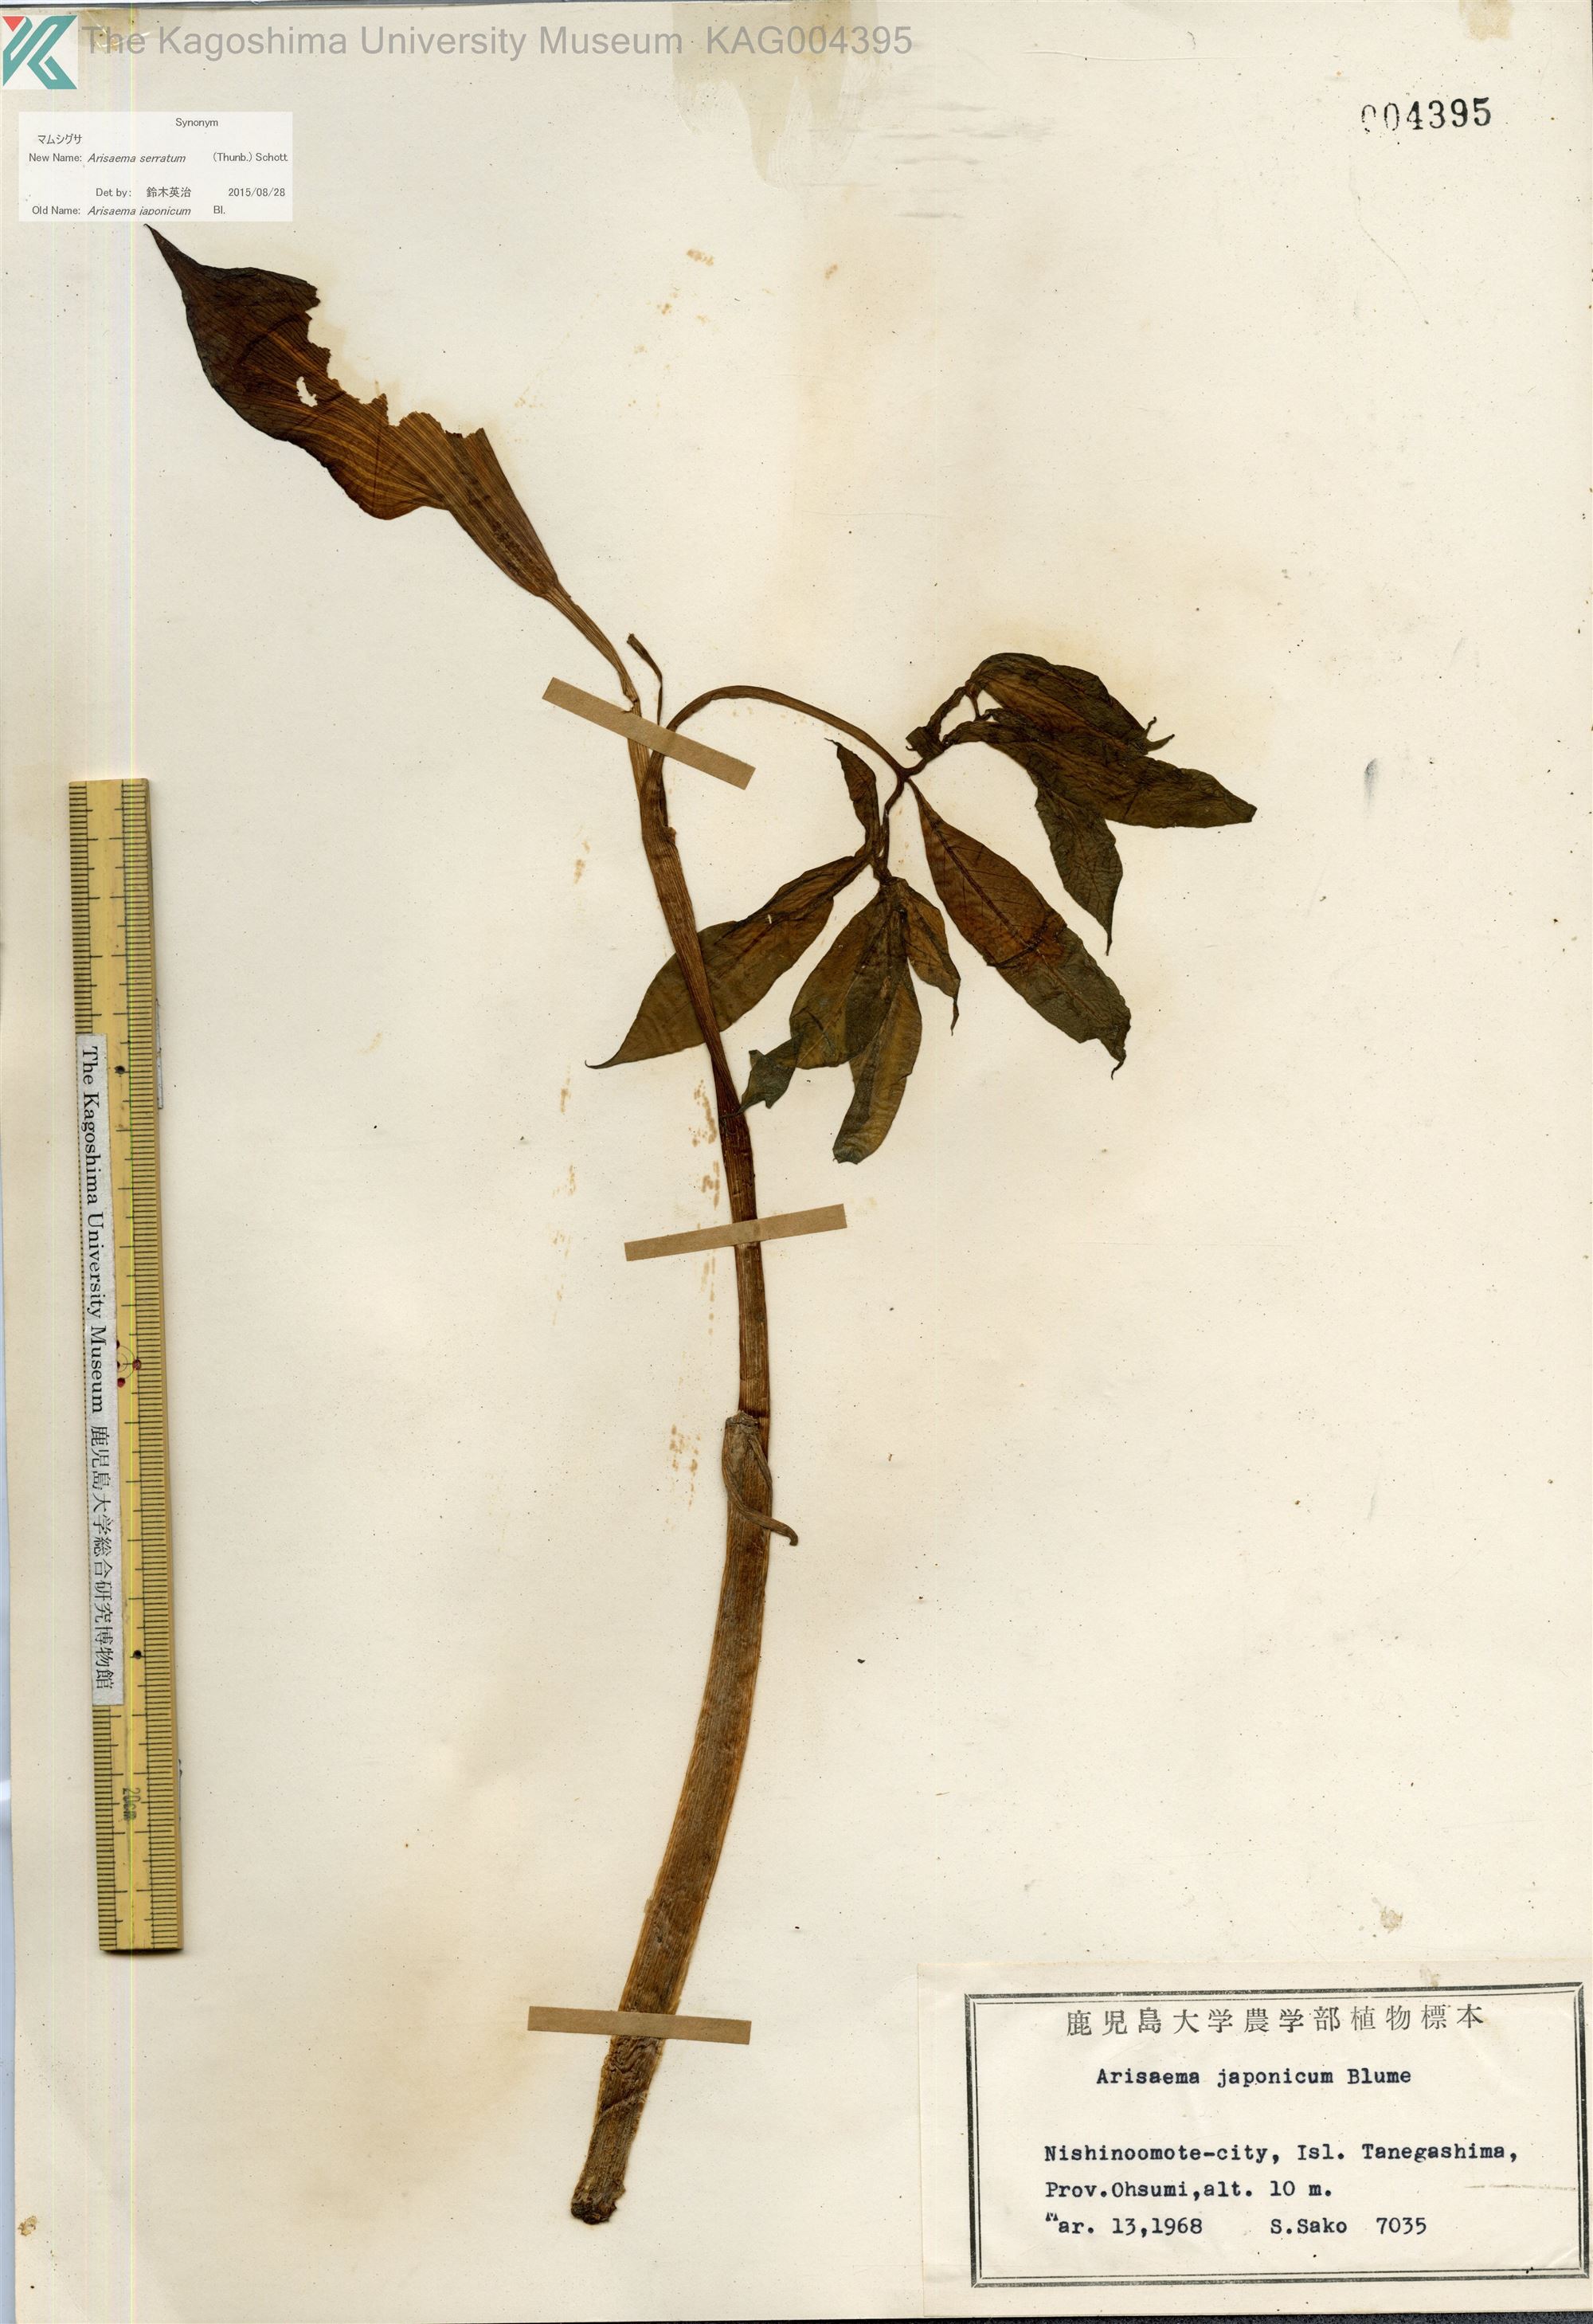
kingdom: Plantae
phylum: Tracheophyta
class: Liliopsida
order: Alismatales
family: Araceae
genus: Arisaema
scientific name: Arisaema serratum
